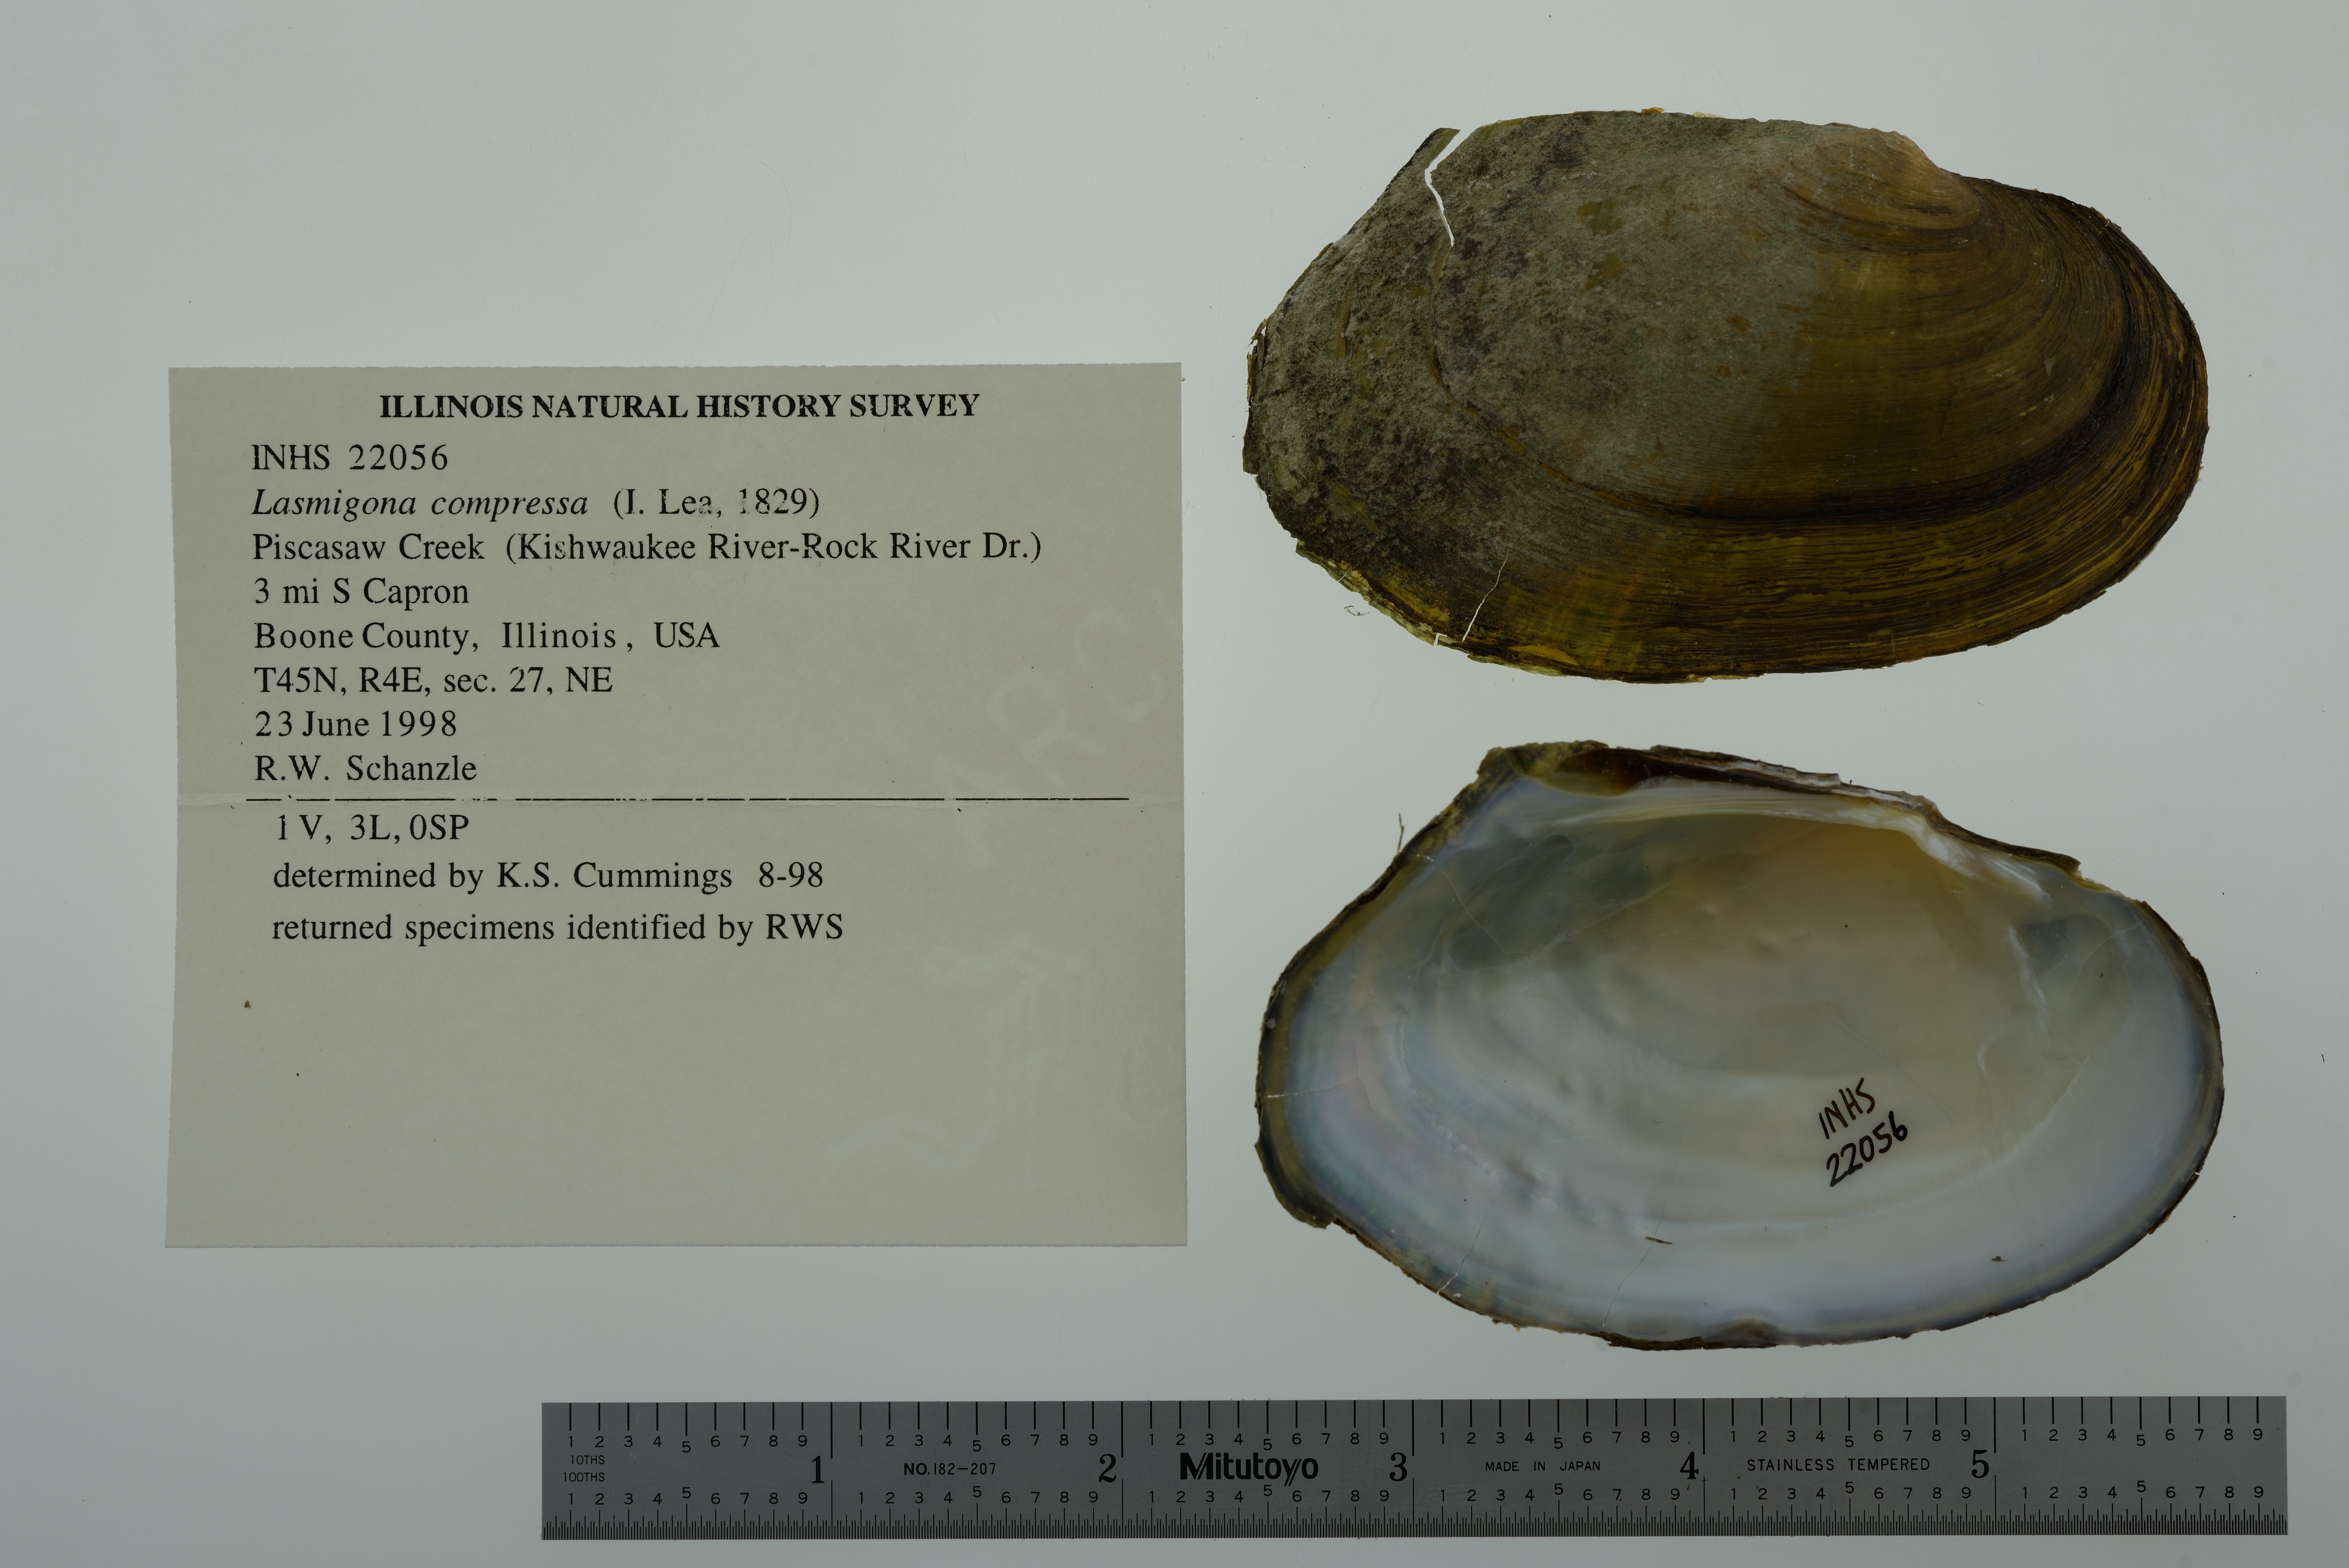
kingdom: Animalia
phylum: Mollusca
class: Bivalvia
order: Unionida
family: Unionidae
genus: Lasmigona
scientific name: Lasmigona compressa
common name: Creek heelsplitter
